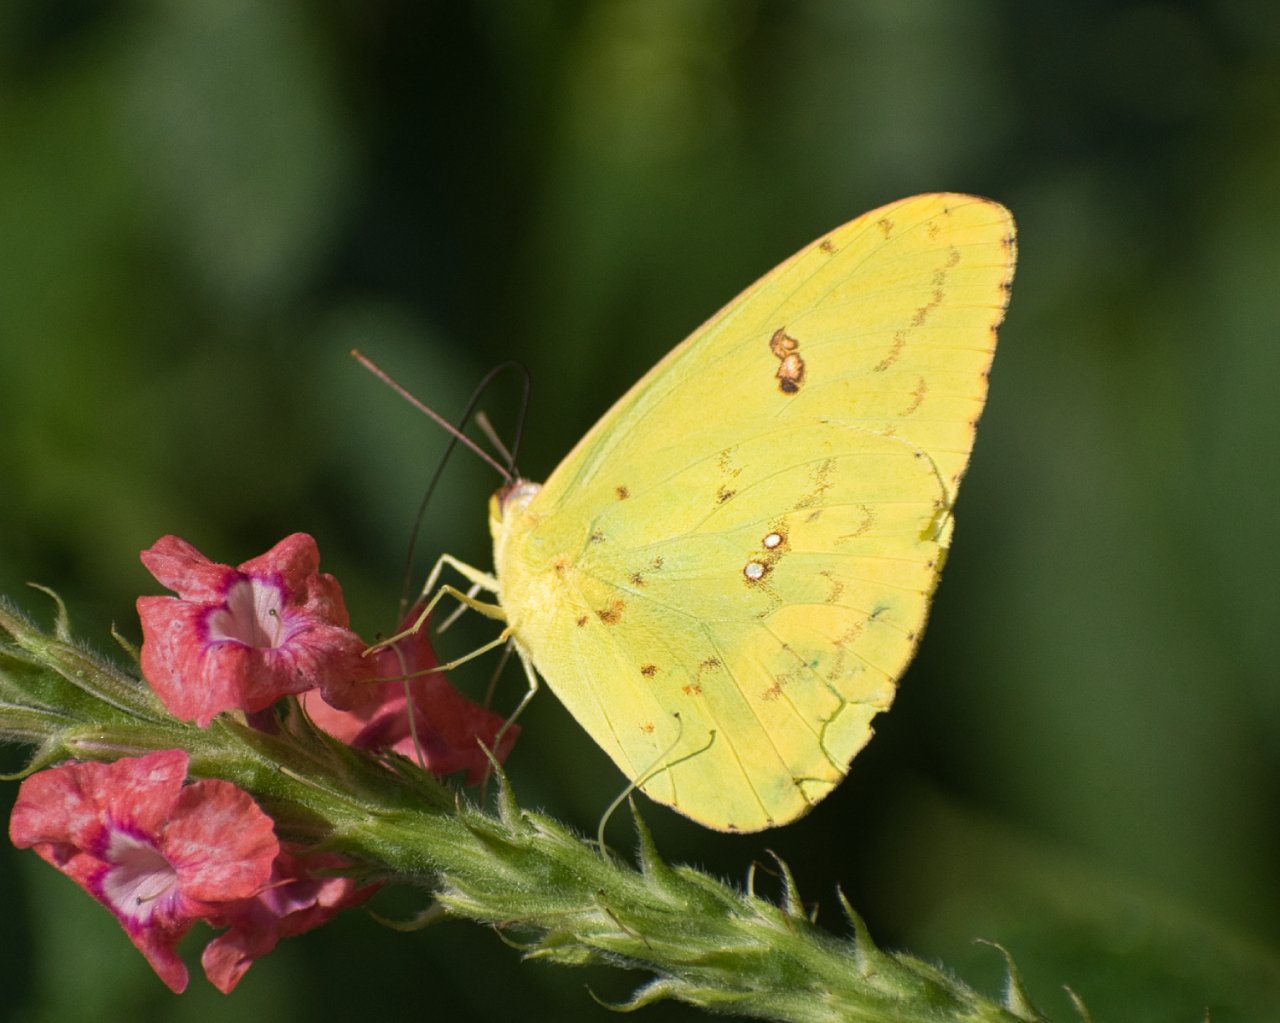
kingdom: Animalia
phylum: Arthropoda
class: Insecta
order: Lepidoptera
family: Pieridae
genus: Phoebis
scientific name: Phoebis sennae
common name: Cloudless Sulphur
